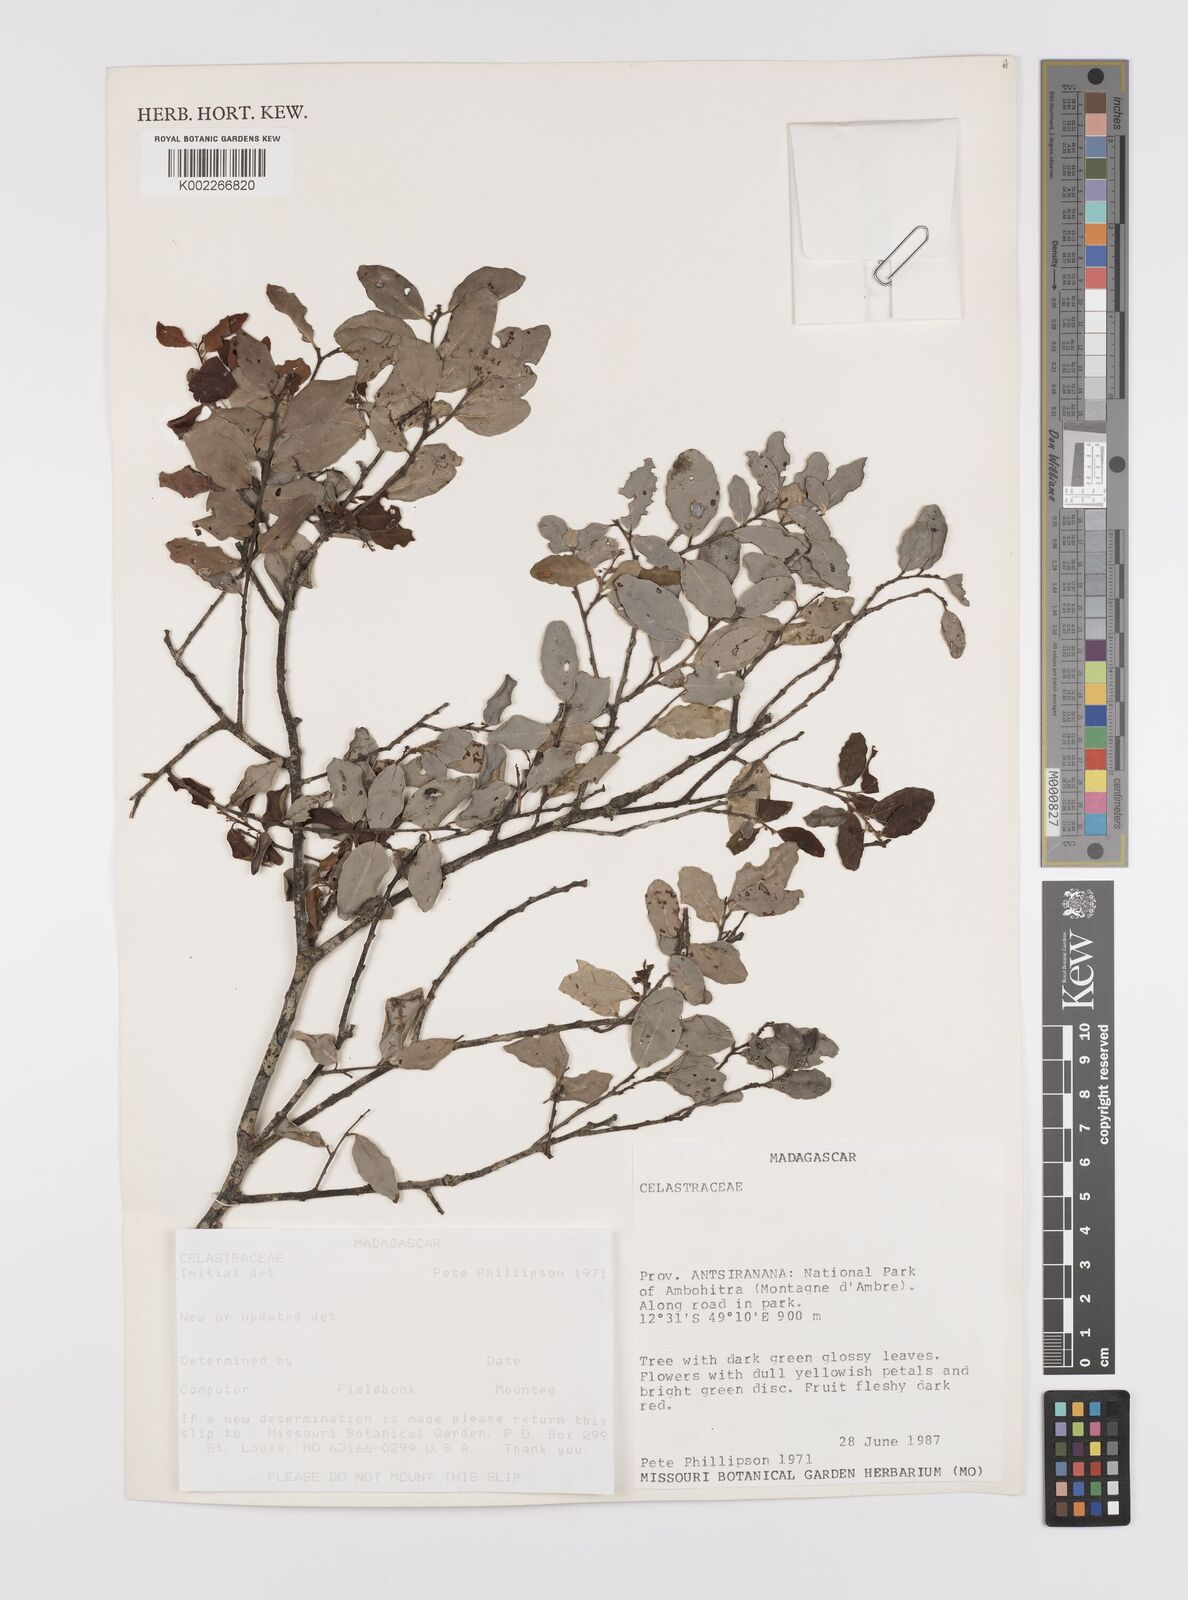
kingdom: Plantae
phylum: Tracheophyta
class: Magnoliopsida
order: Celastrales
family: Celastraceae
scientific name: Celastraceae
